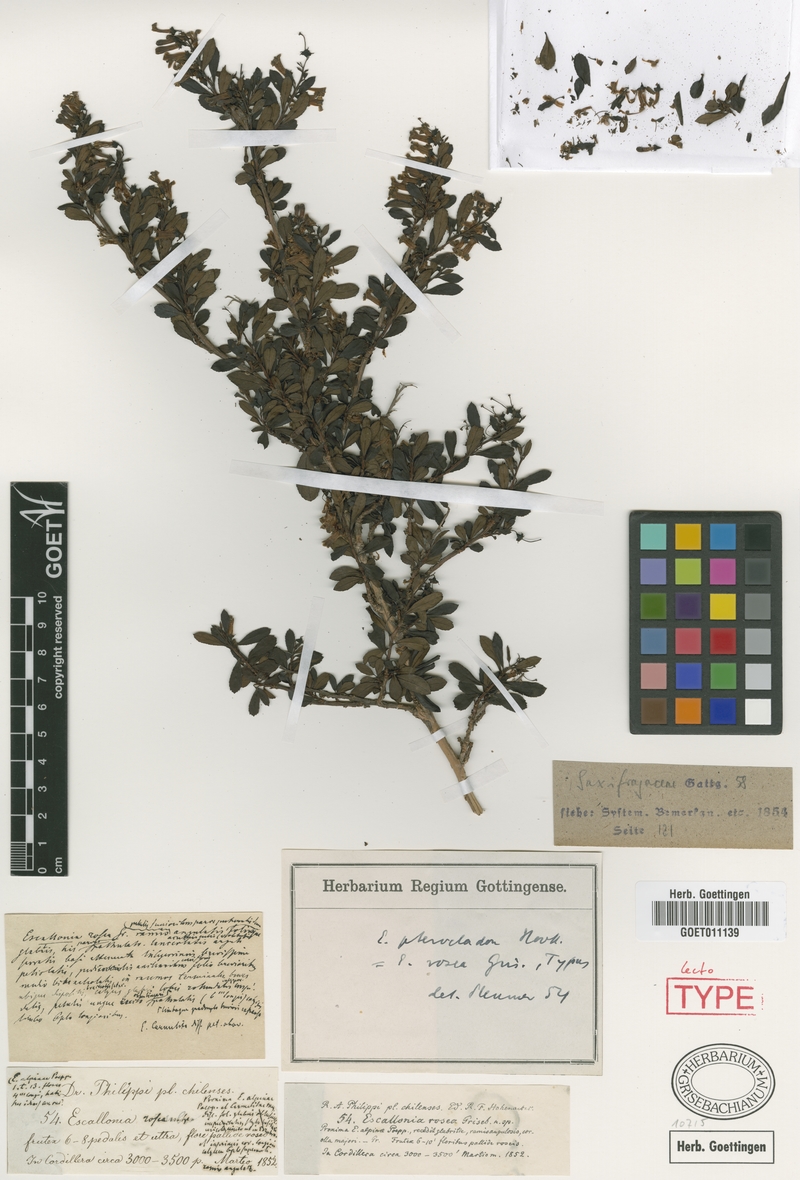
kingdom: Plantae
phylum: Tracheophyta
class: Magnoliopsida
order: Escalloniales
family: Escalloniaceae
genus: Escallonia
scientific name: Escallonia alpina
